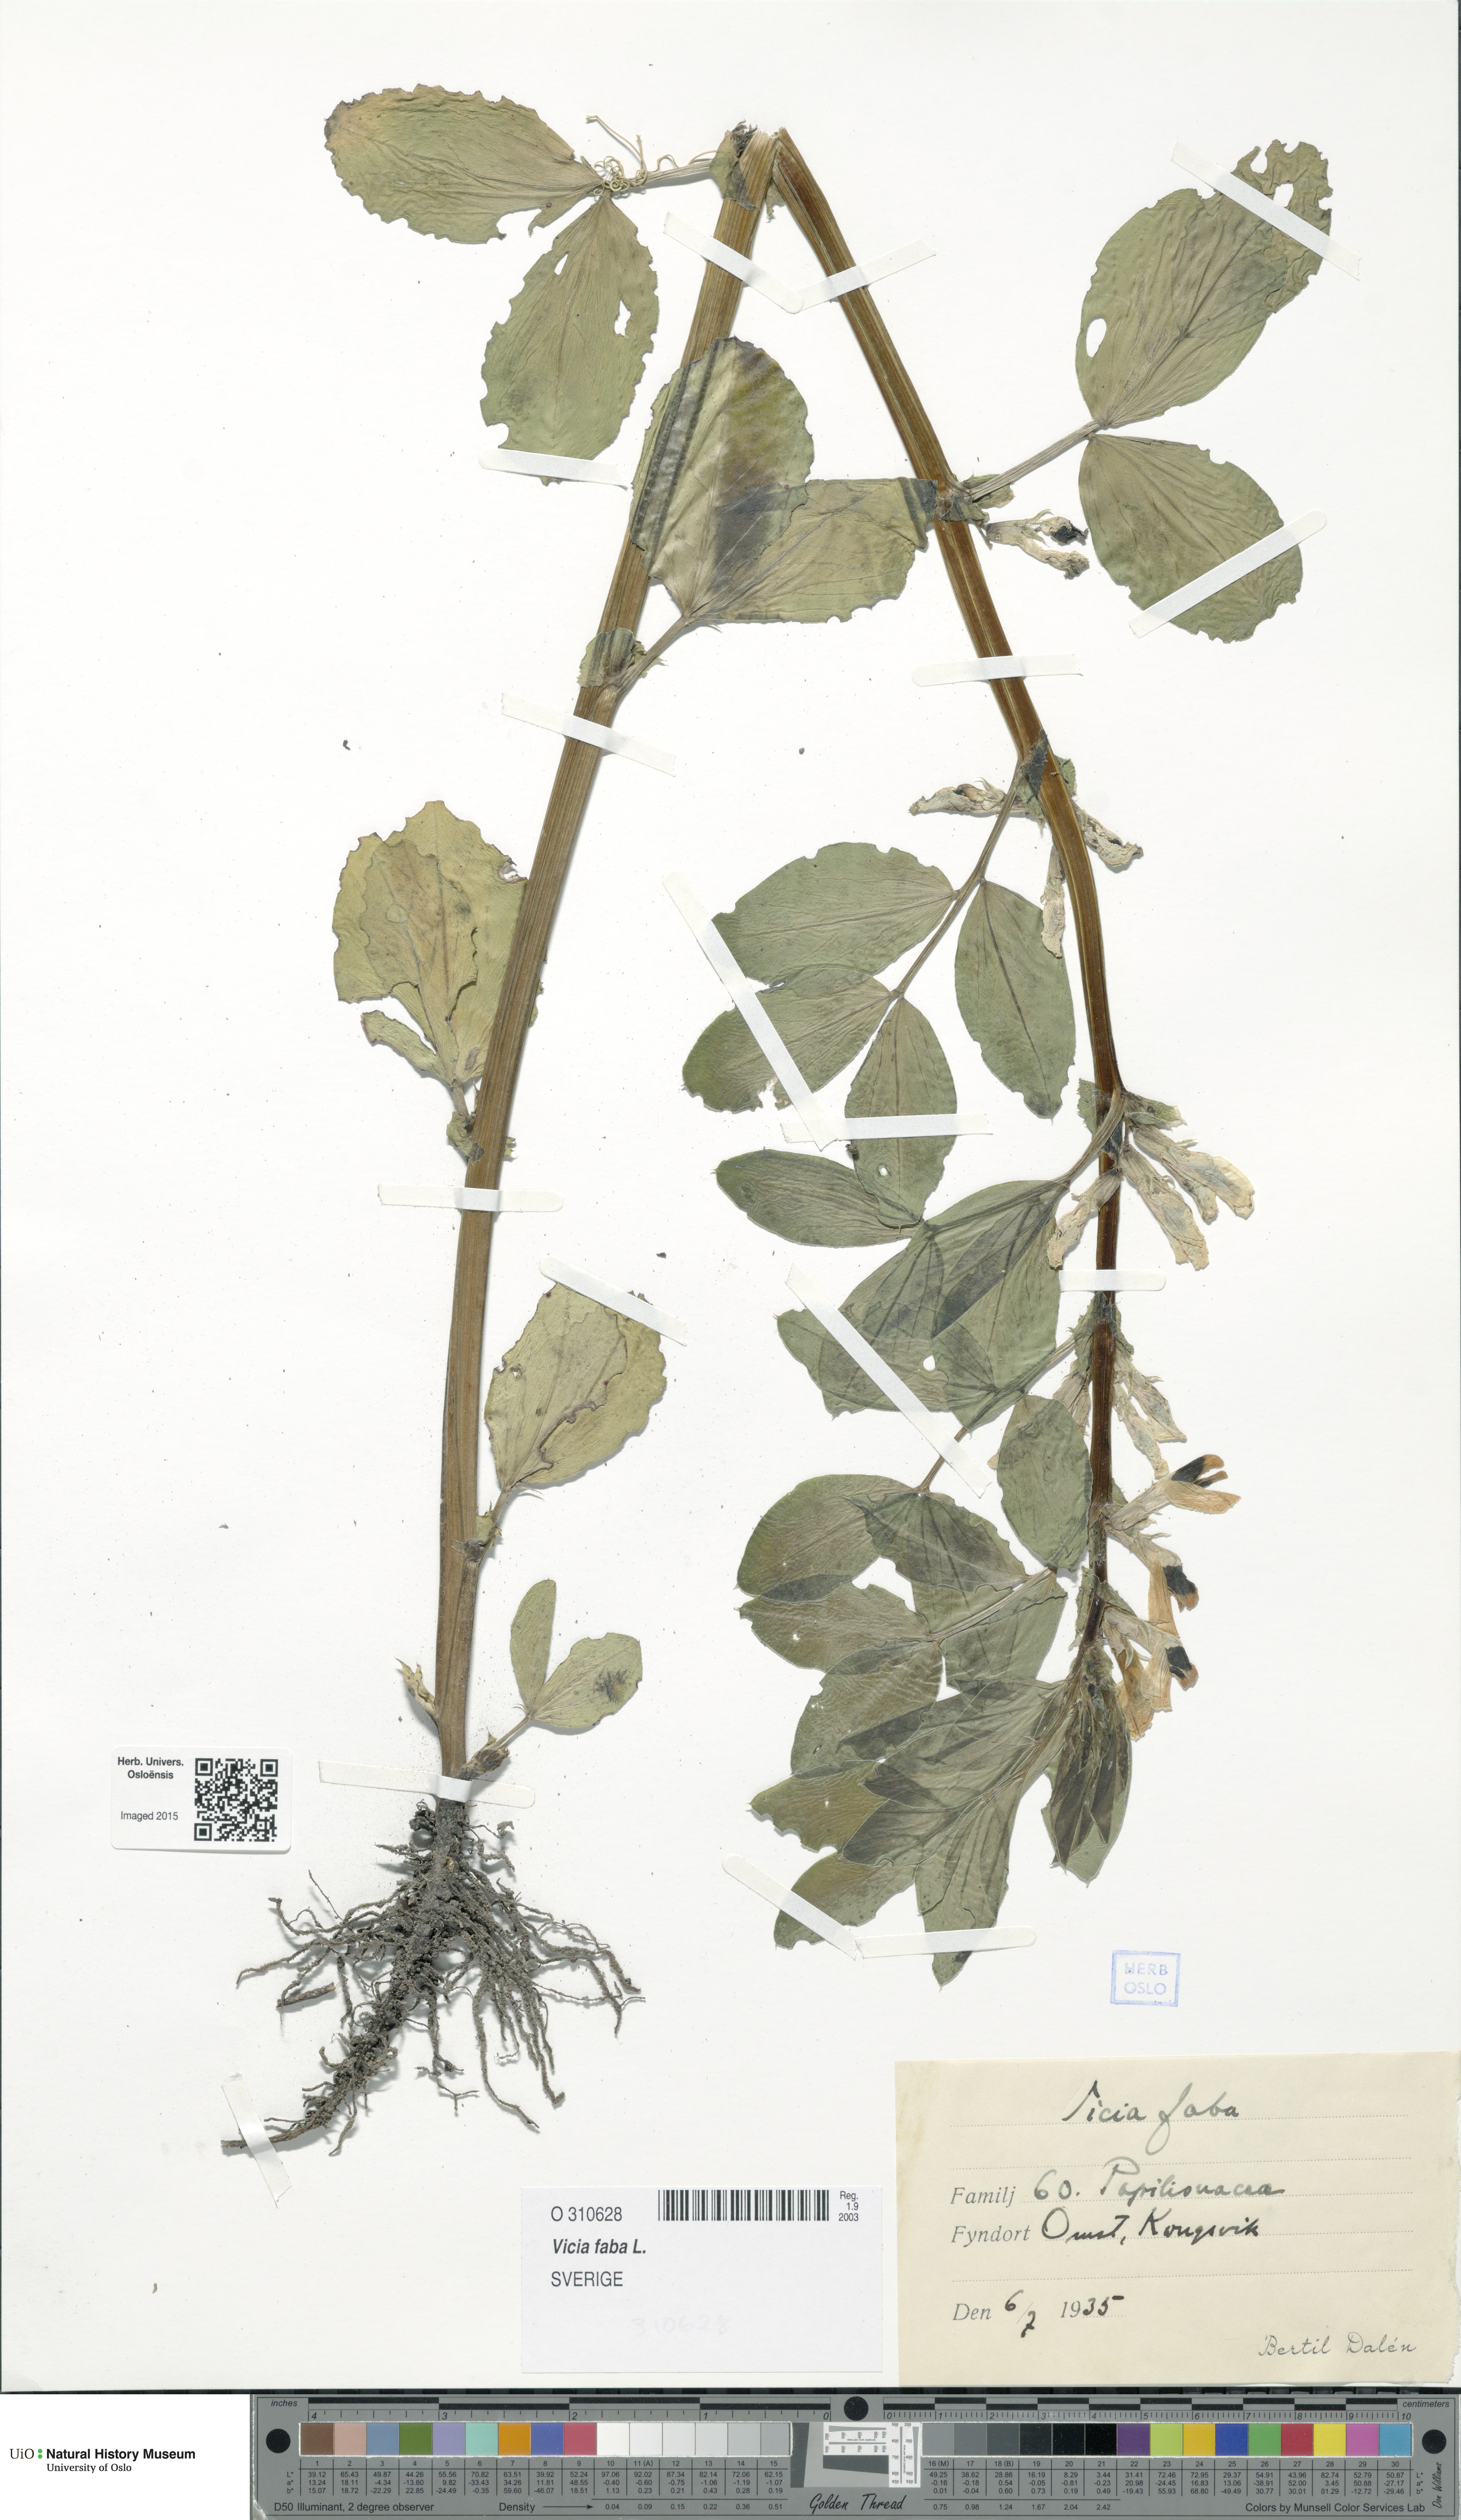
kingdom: Plantae
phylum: Tracheophyta
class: Magnoliopsida
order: Fabales
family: Fabaceae
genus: Vicia
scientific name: Vicia faba
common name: Broad bean
